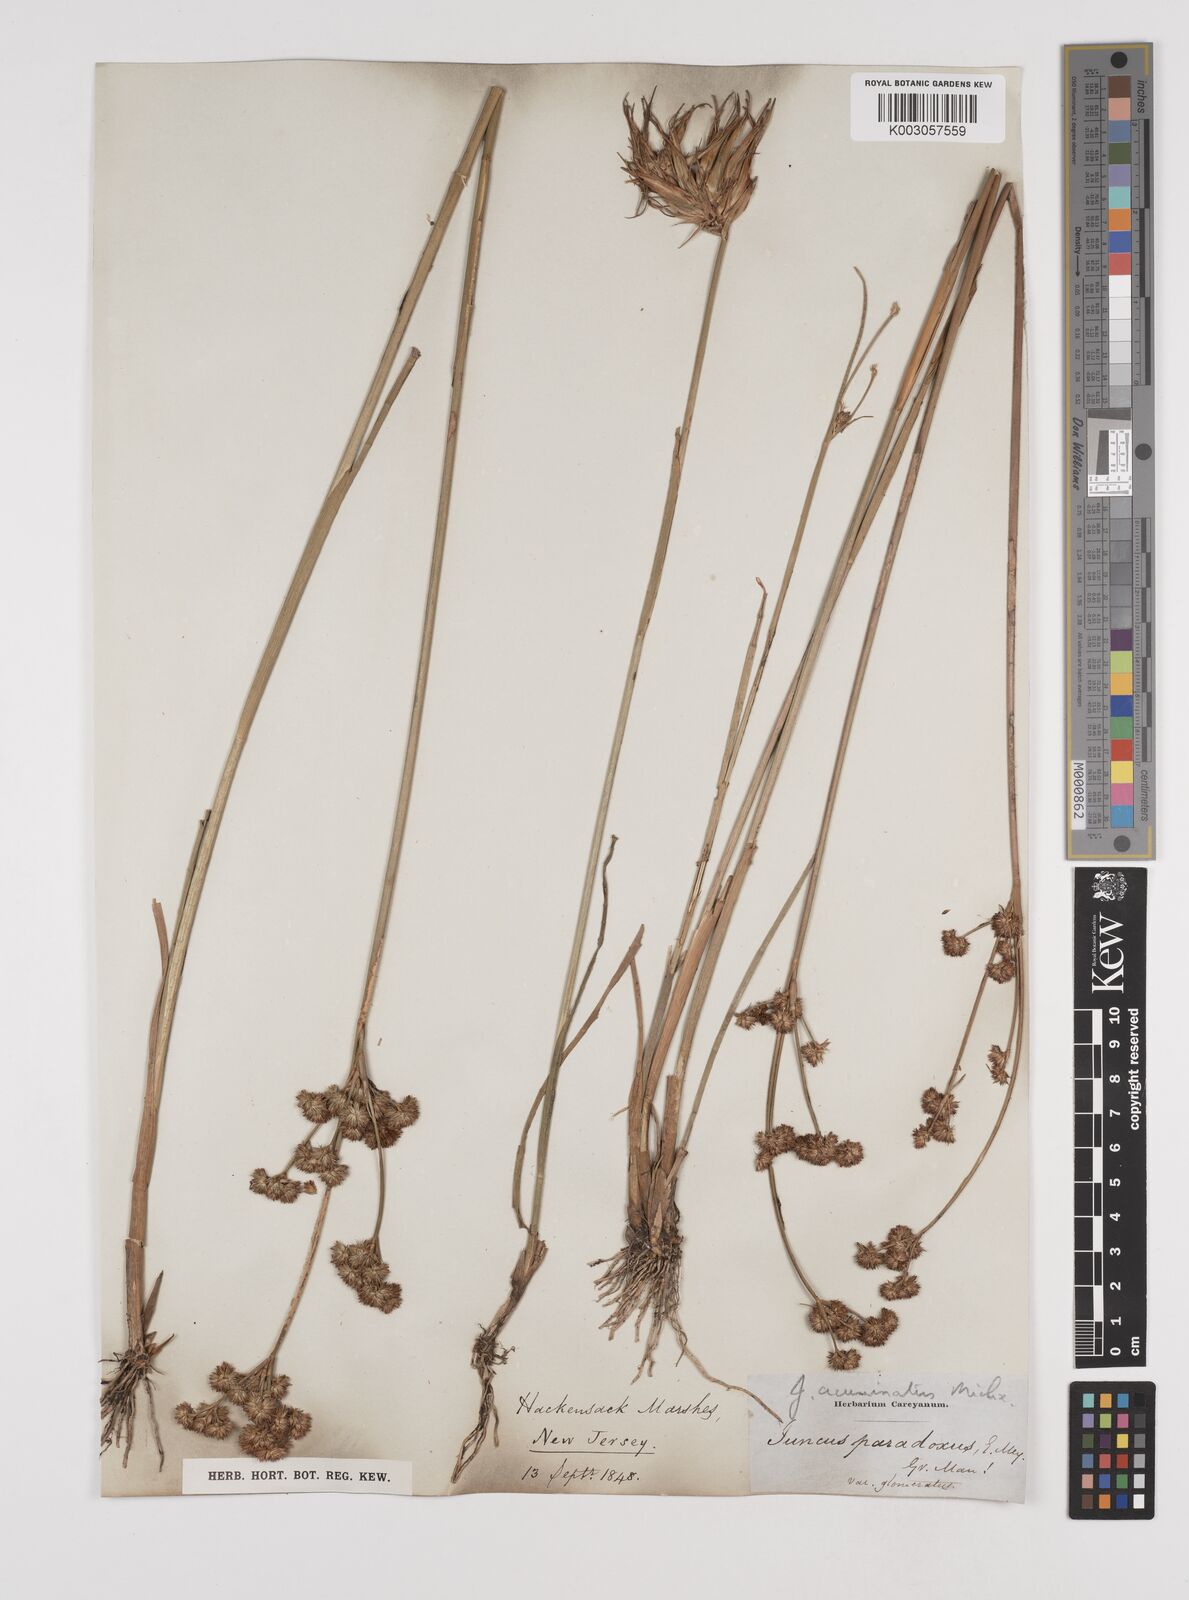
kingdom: Plantae
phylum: Tracheophyta
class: Liliopsida
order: Poales
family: Juncaceae
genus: Juncus
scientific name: Juncus acuminatus
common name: Knotty-leaved rush
